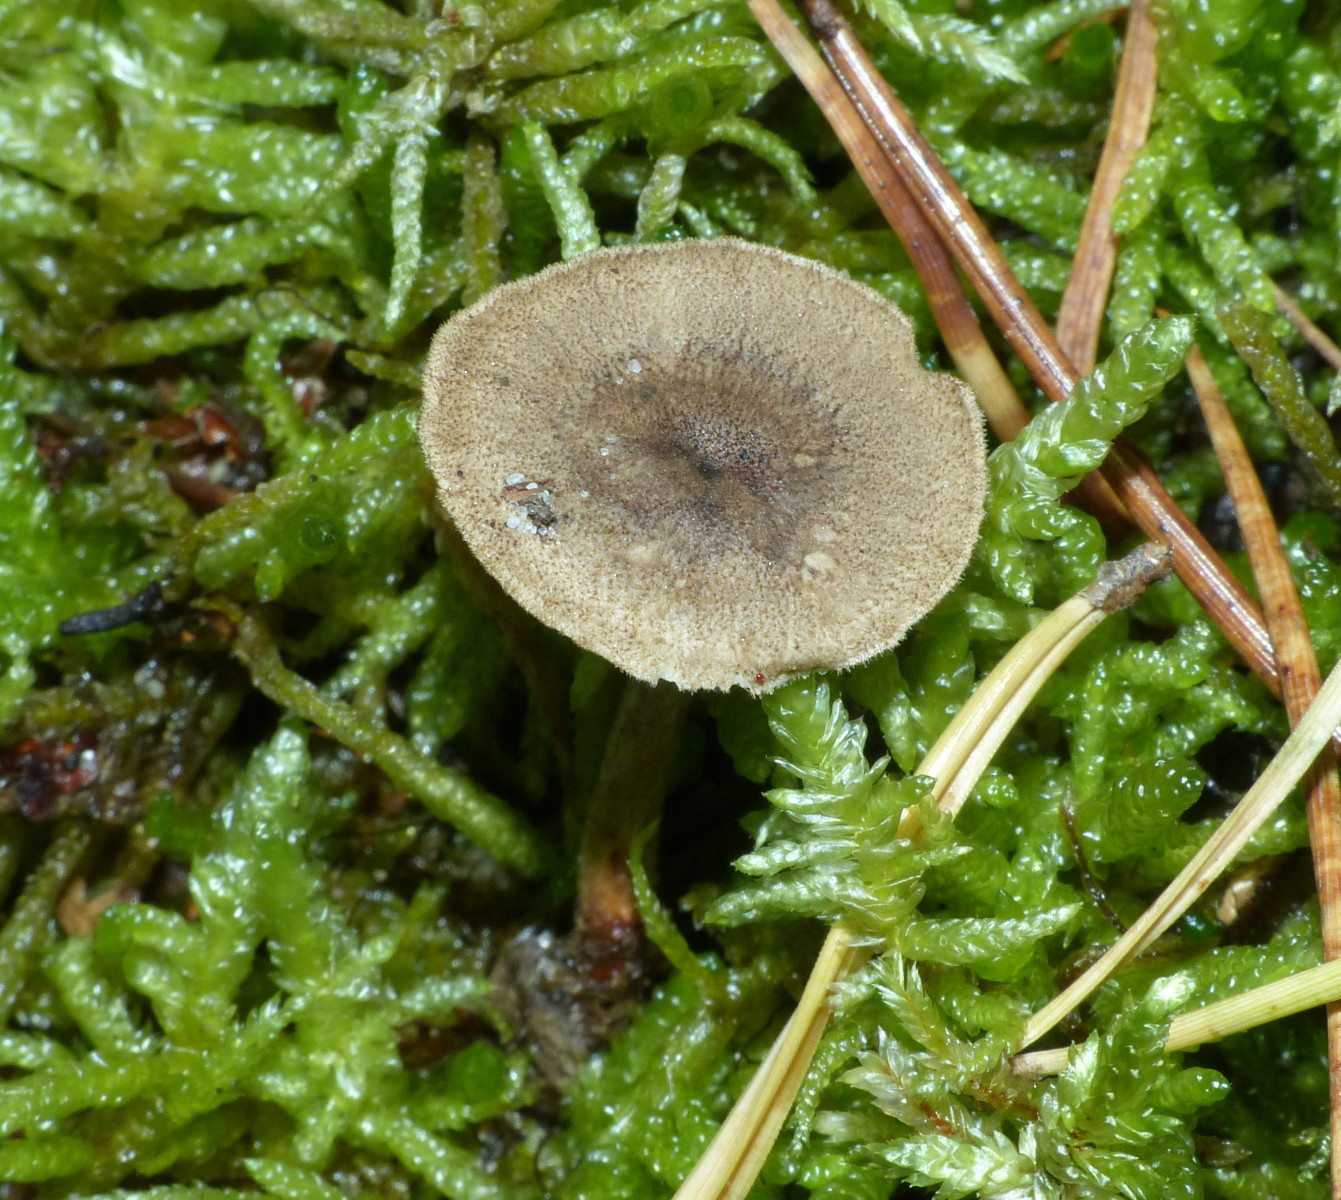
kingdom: Fungi
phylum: Basidiomycota
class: Agaricomycetes
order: Polyporales
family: Polyporaceae
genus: Lentinus
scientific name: Lentinus brumalis
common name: vinter-stilkporesvamp
